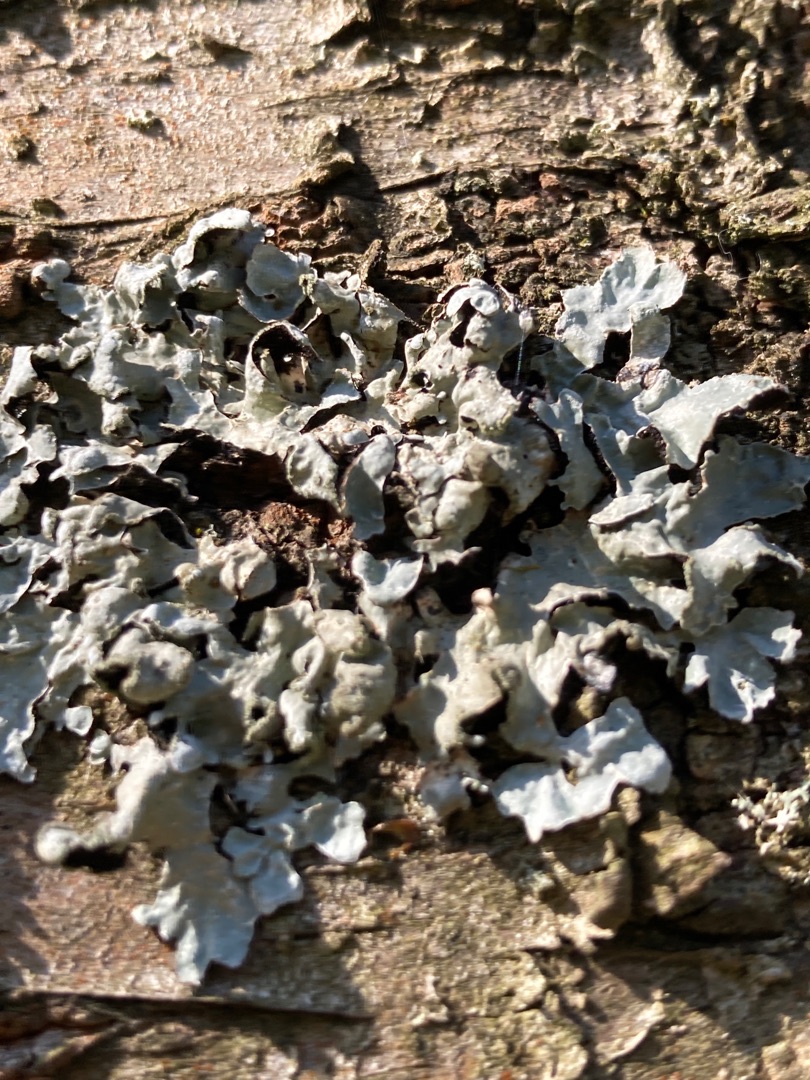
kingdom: Fungi
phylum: Ascomycota
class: Lecanoromycetes
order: Lecanorales
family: Parmeliaceae
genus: Parmelia
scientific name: Parmelia sulcata
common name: Rynket skållav
